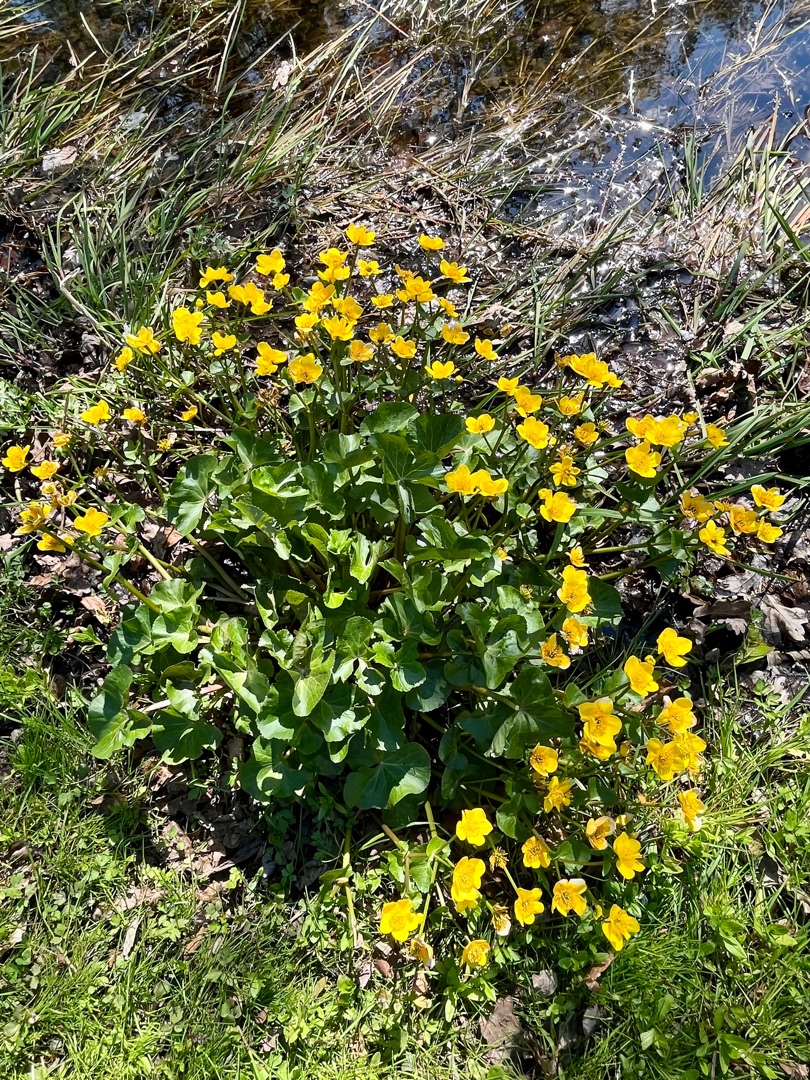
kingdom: Plantae
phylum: Tracheophyta
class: Magnoliopsida
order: Ranunculales
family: Ranunculaceae
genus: Caltha
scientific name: Caltha palustris
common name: Eng-kabbeleje
